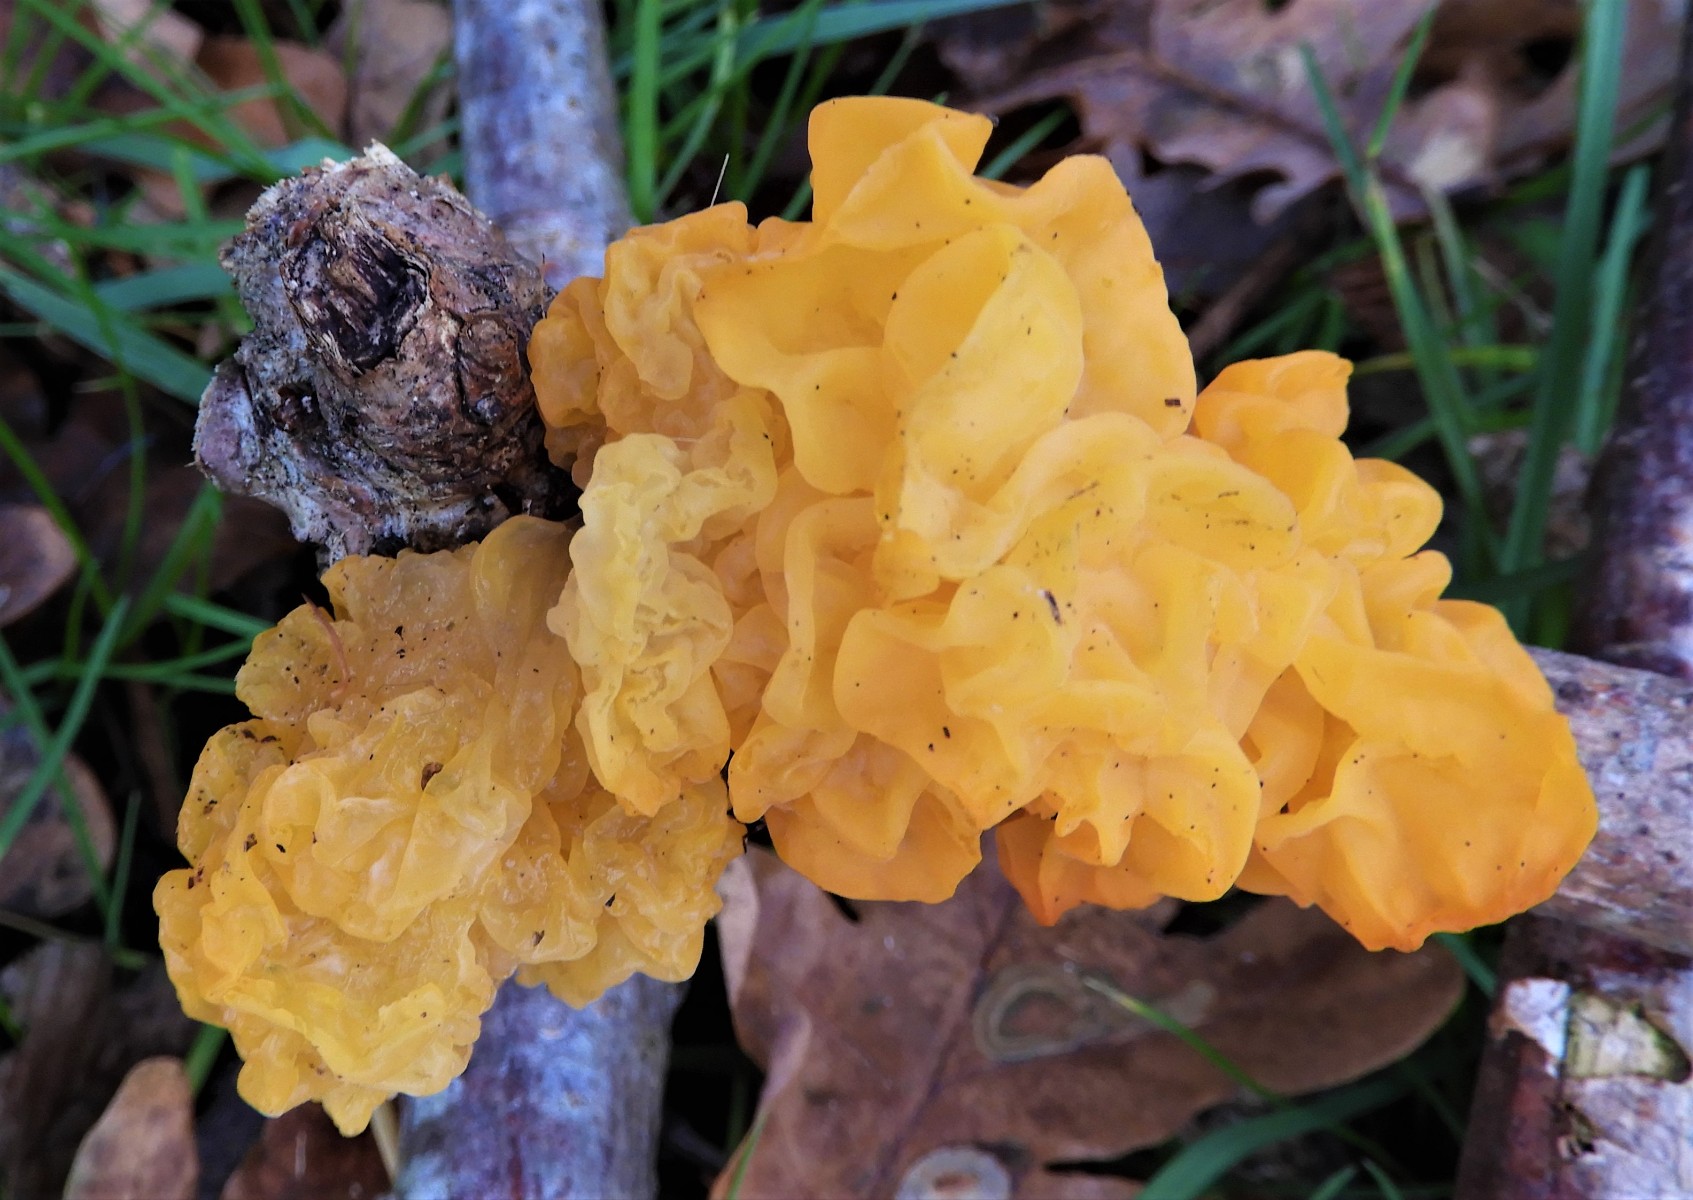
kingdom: Fungi
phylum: Basidiomycota
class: Tremellomycetes
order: Tremellales
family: Tremellaceae
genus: Tremella
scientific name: Tremella mesenterica
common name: gul bævresvamp
